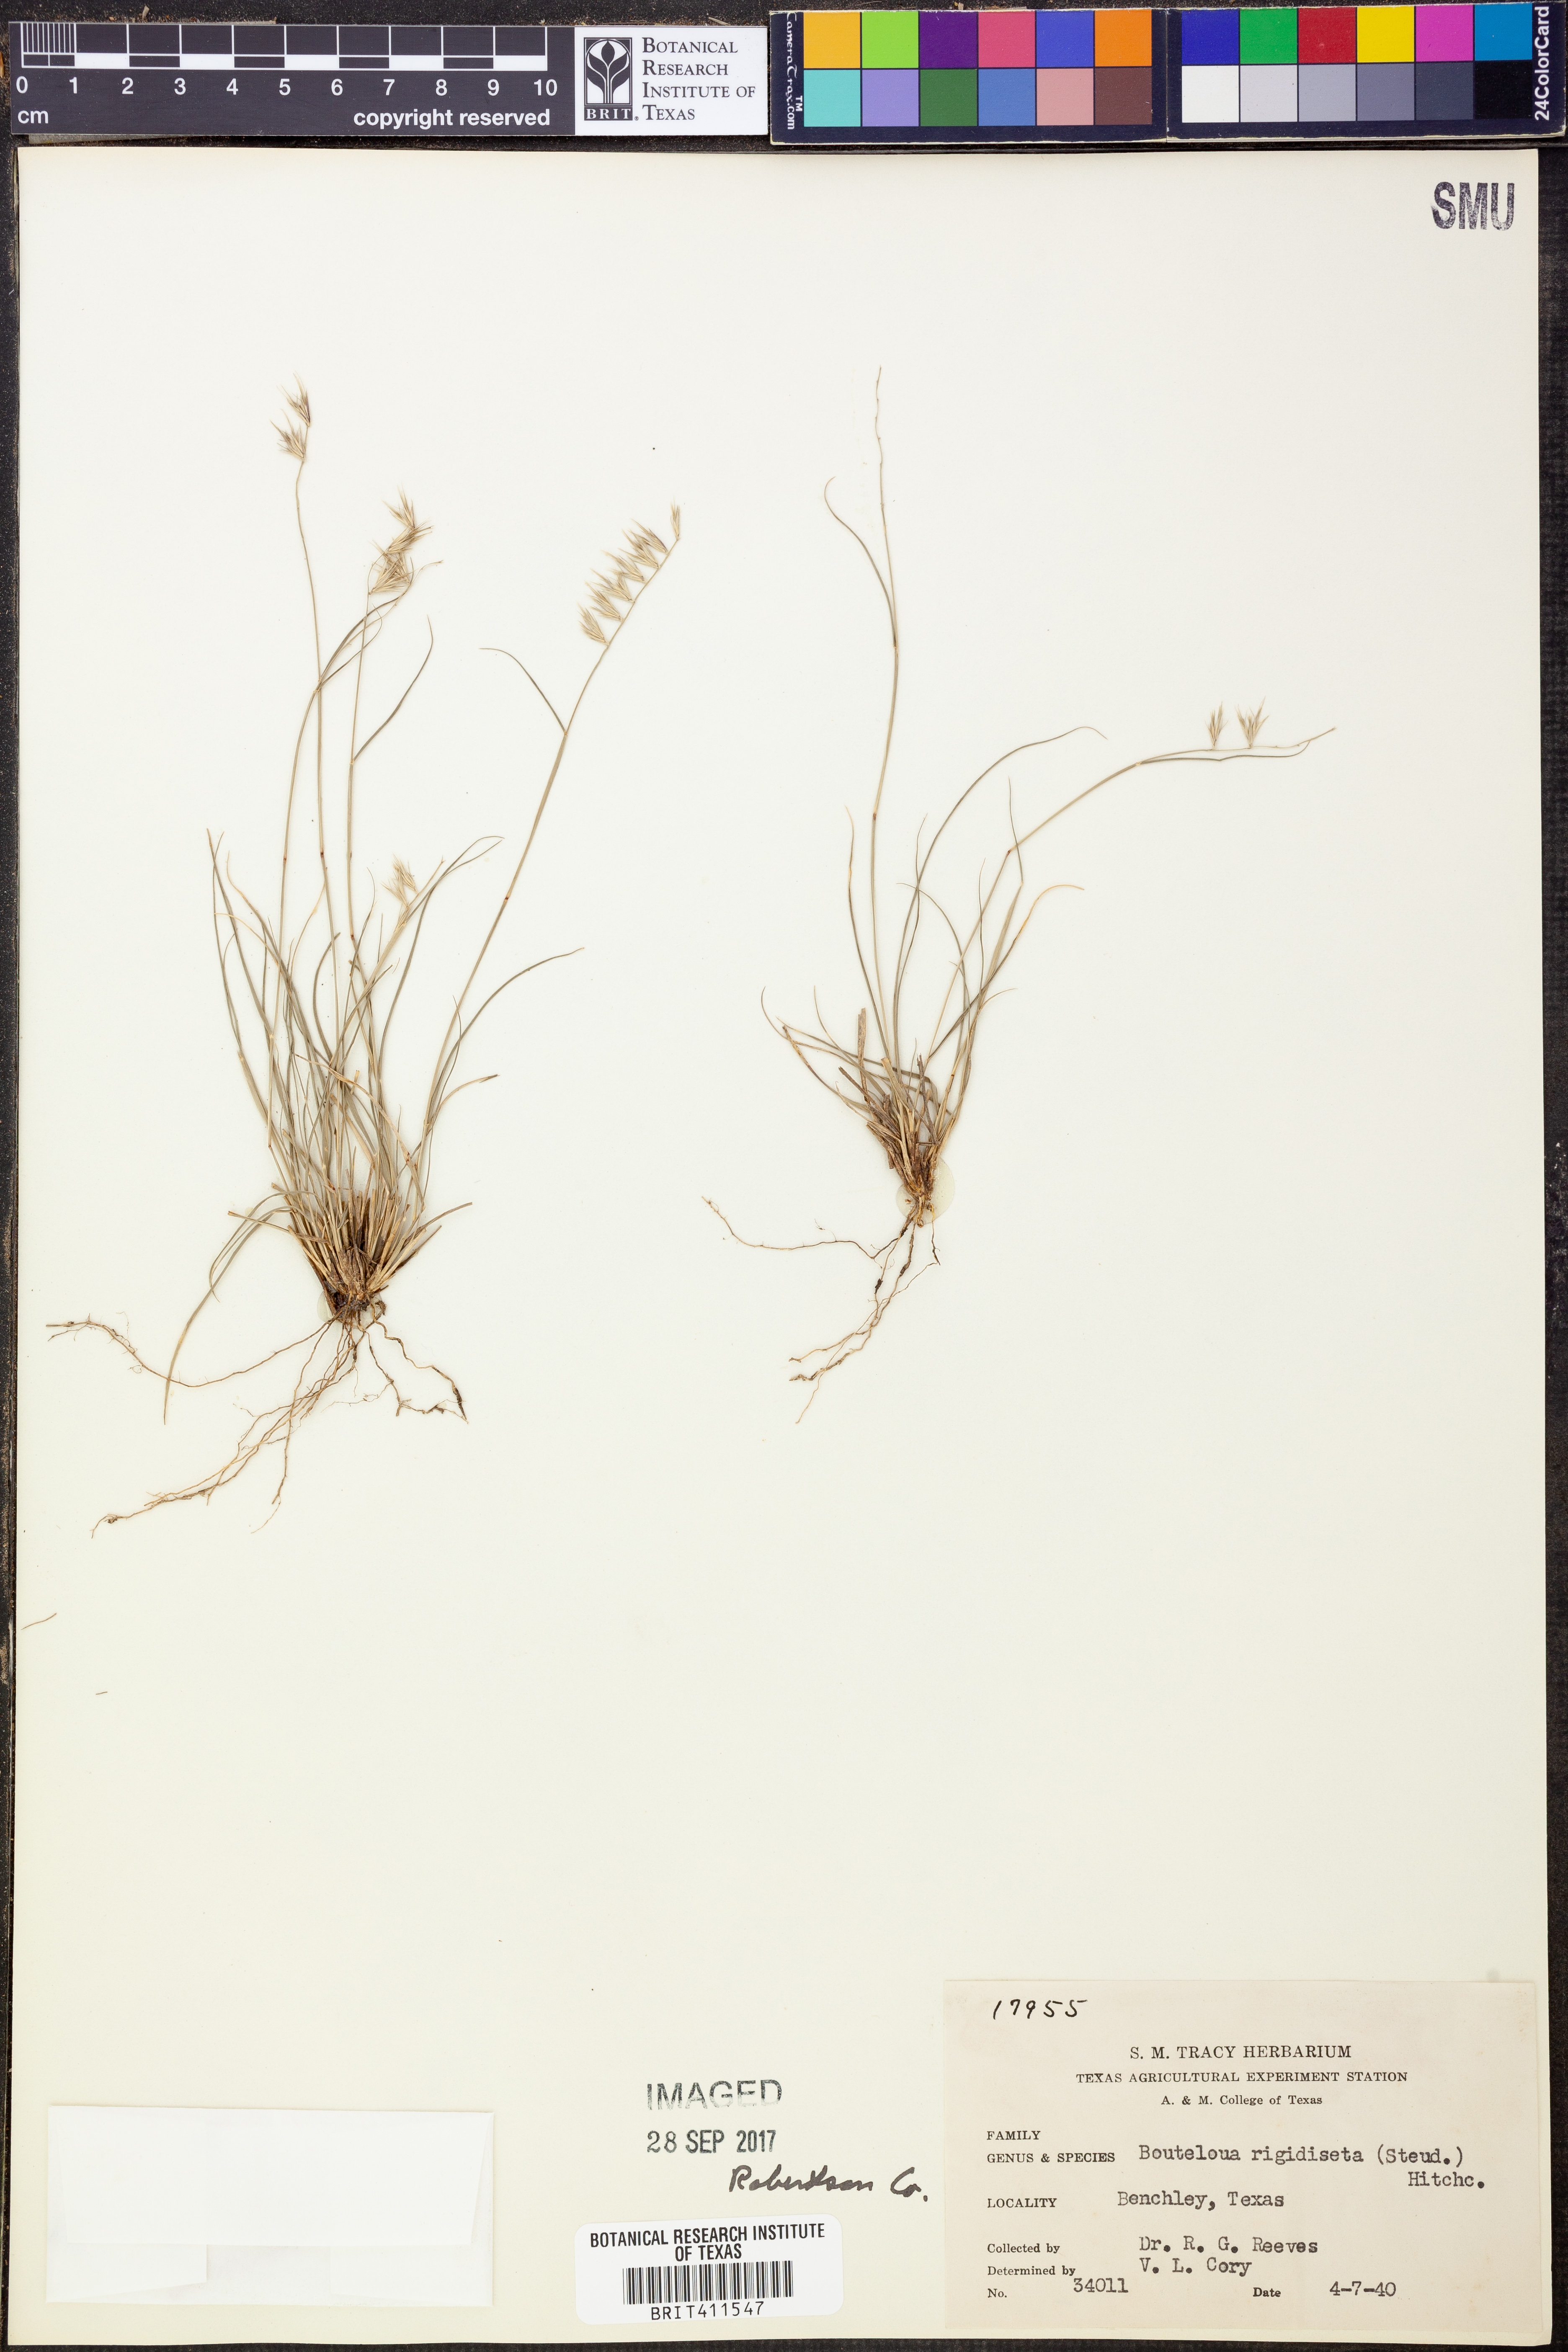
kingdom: Plantae
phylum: Tracheophyta
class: Liliopsida
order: Poales
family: Poaceae
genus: Bouteloua
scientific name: Bouteloua rigidiseta
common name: Texas grama
